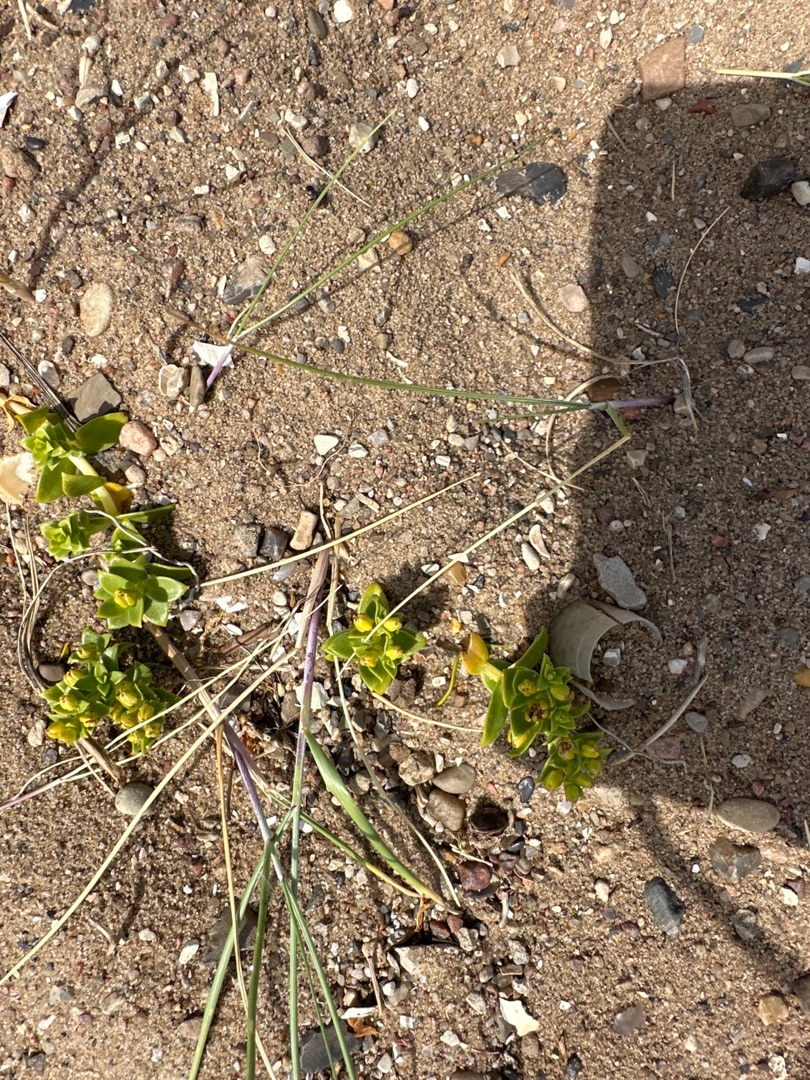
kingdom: Plantae
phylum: Tracheophyta
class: Magnoliopsida
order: Caryophyllales
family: Caryophyllaceae
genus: Honckenya
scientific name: Honckenya peploides
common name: Strandarve
